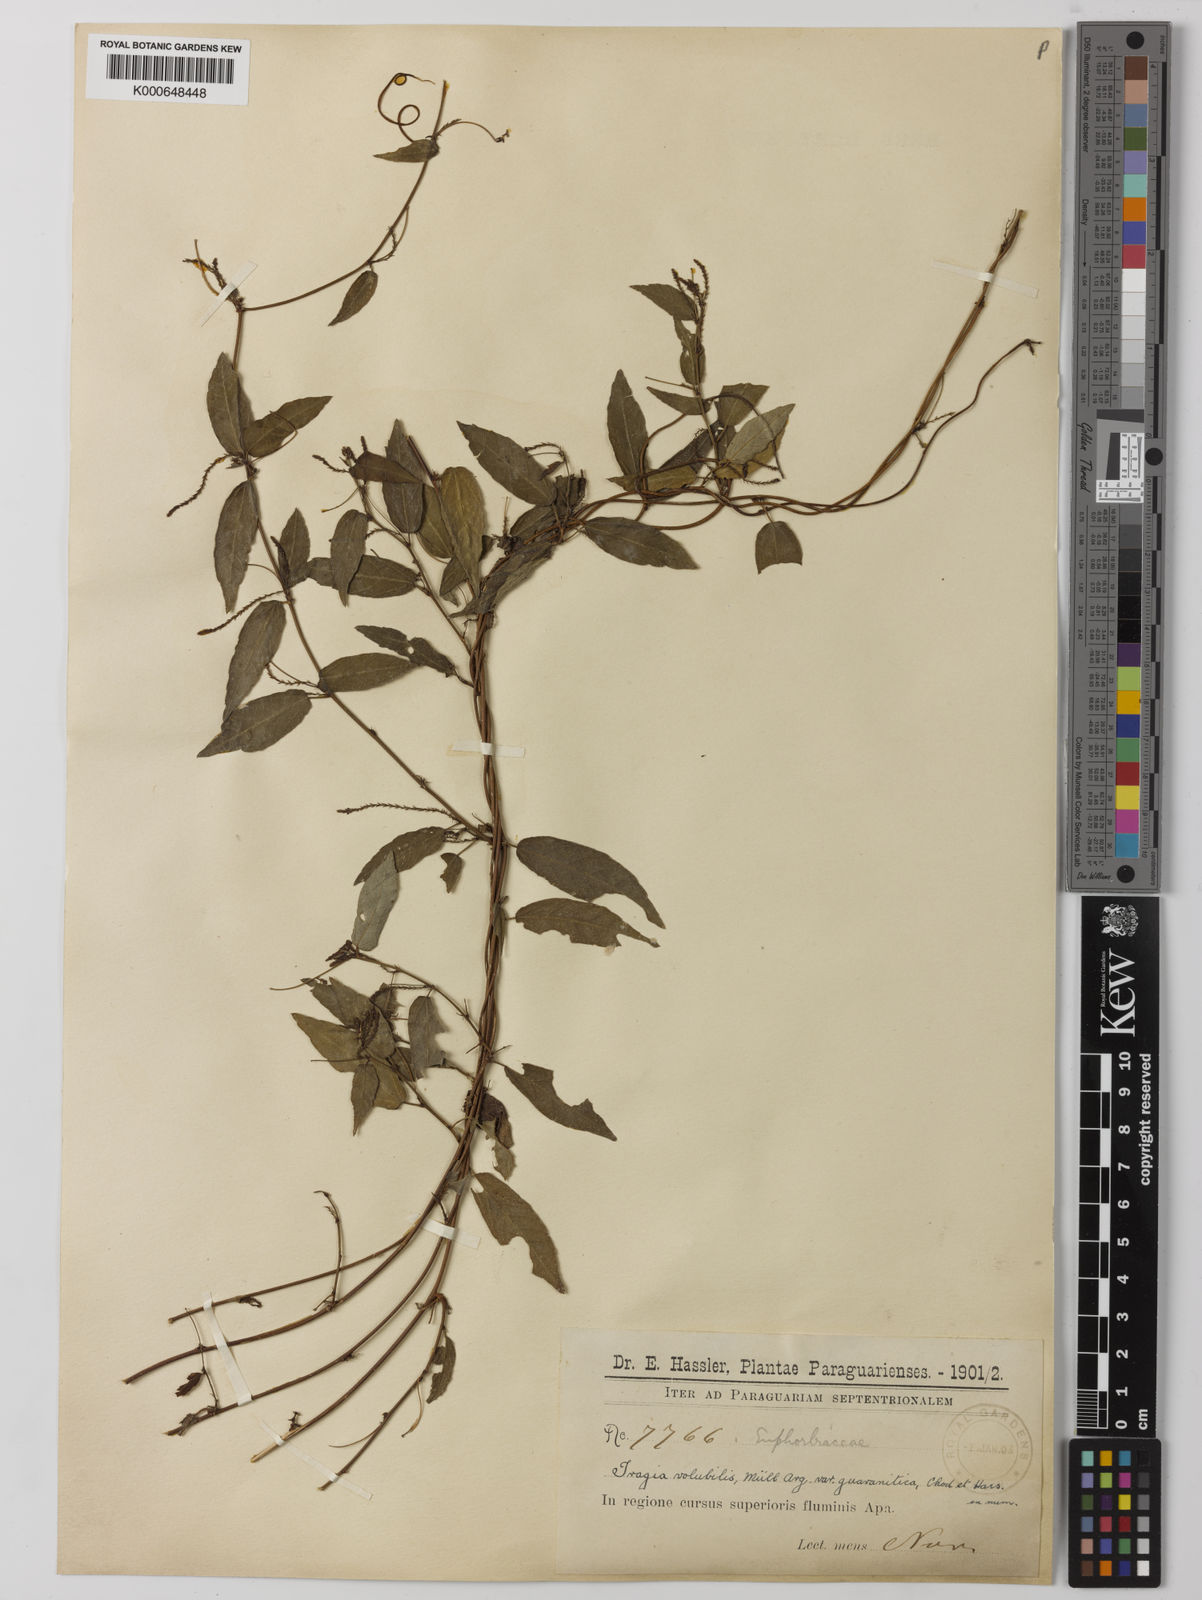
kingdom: Plantae
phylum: Tracheophyta
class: Magnoliopsida
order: Malpighiales
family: Euphorbiaceae
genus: Tragia
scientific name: Tragia volubilis
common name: Twining cow-itch
